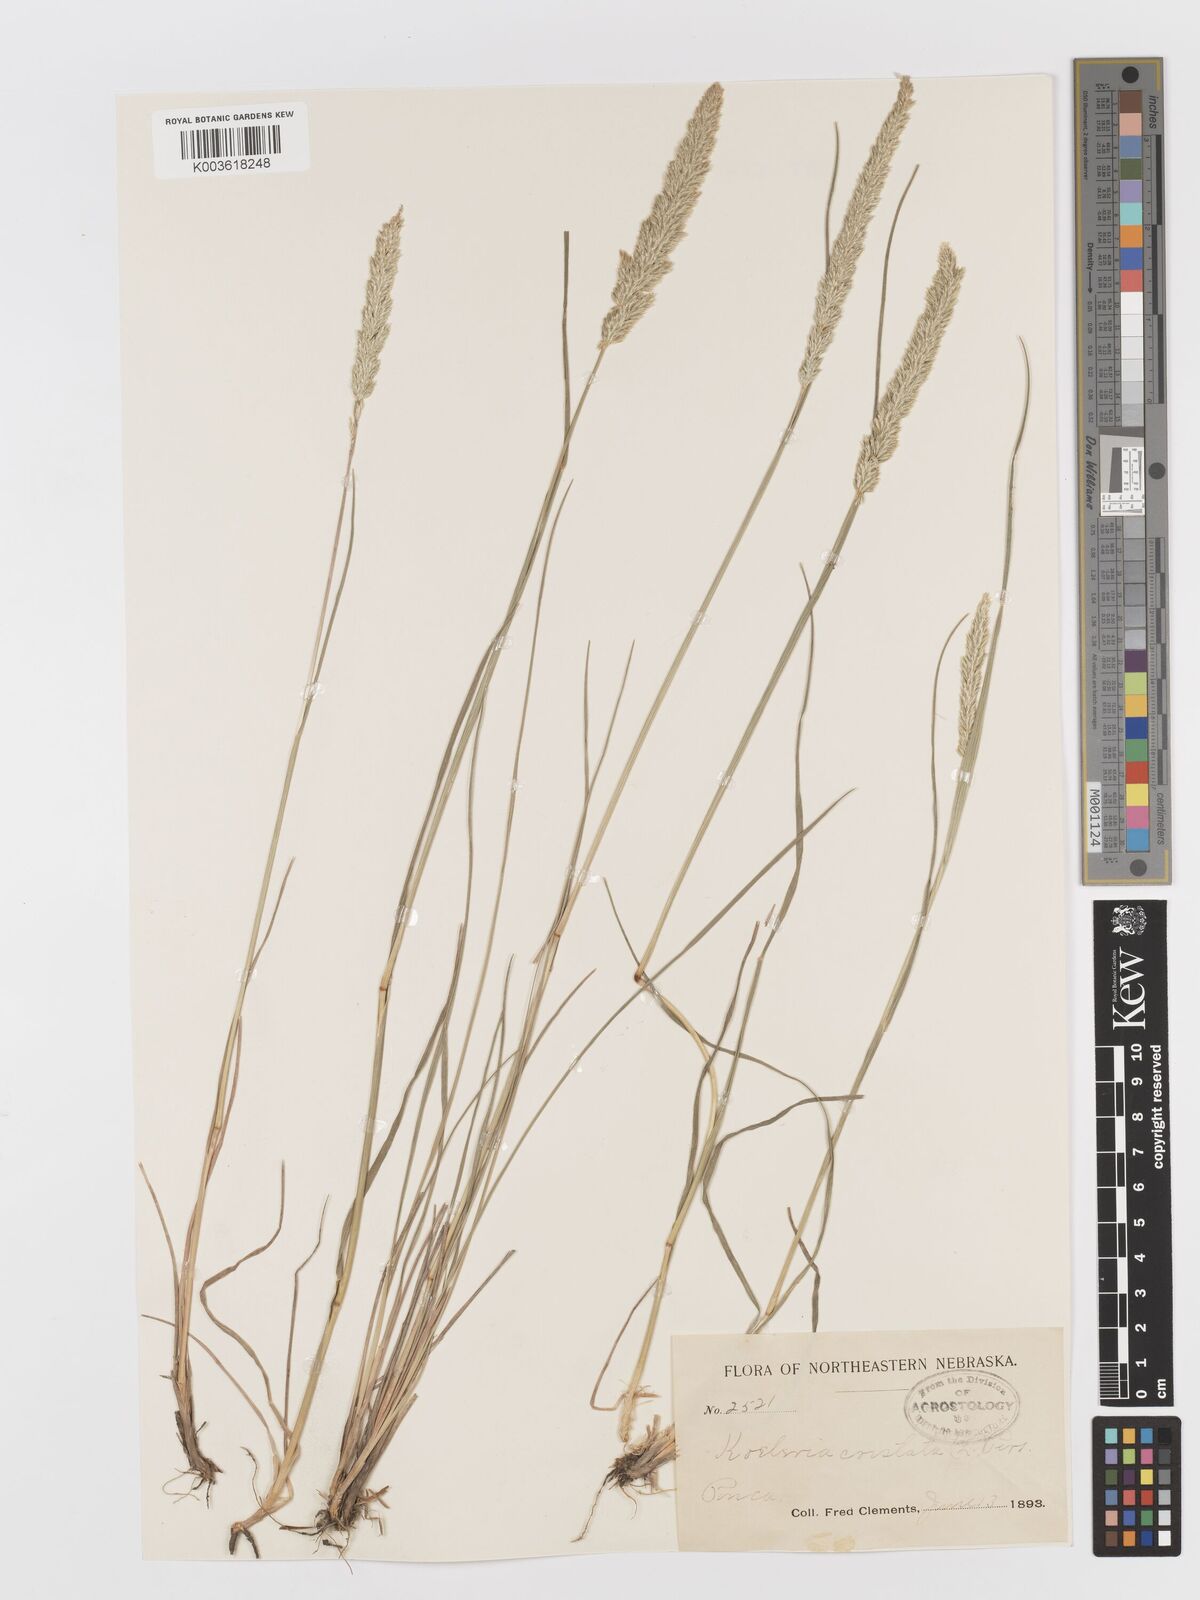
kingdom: Plantae
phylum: Tracheophyta
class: Liliopsida
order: Poales
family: Poaceae
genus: Koeleria
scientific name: Koeleria macrantha
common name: Crested hair-grass
